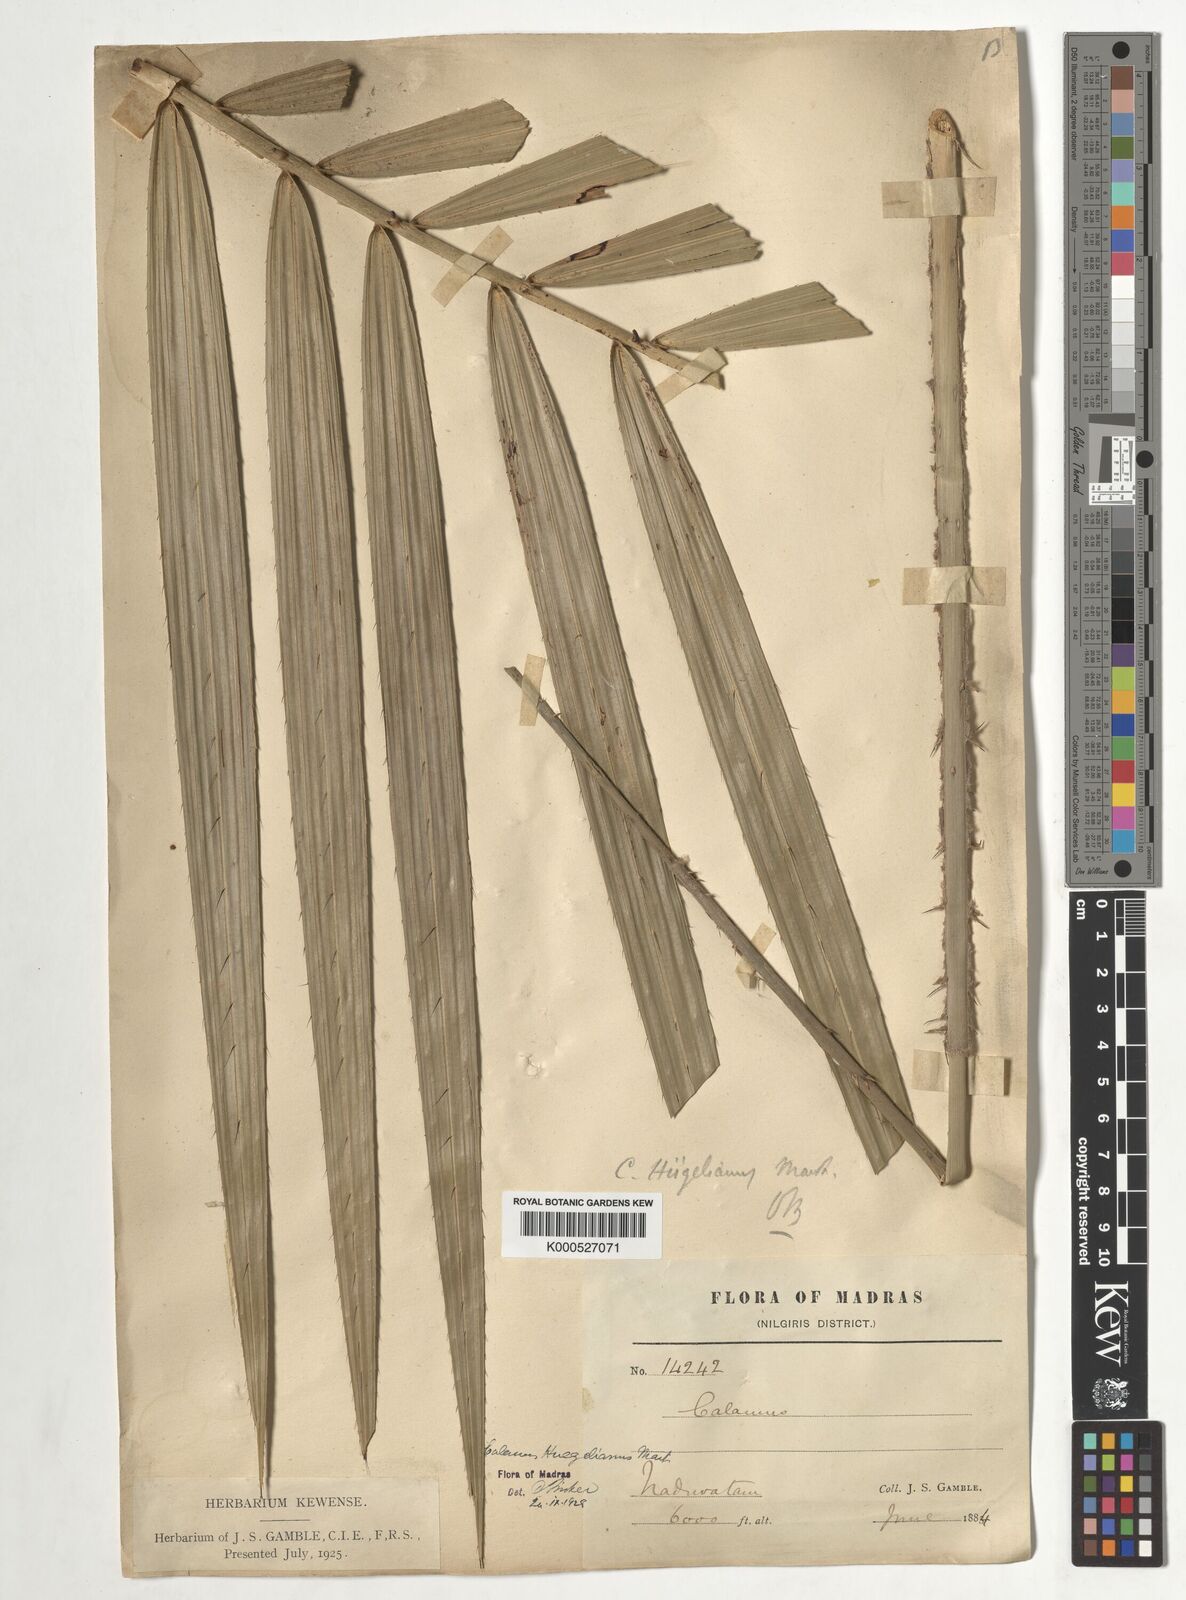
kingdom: Plantae
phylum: Tracheophyta
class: Liliopsida
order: Arecales
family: Arecaceae
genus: Calamus
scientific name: Calamus wightii
